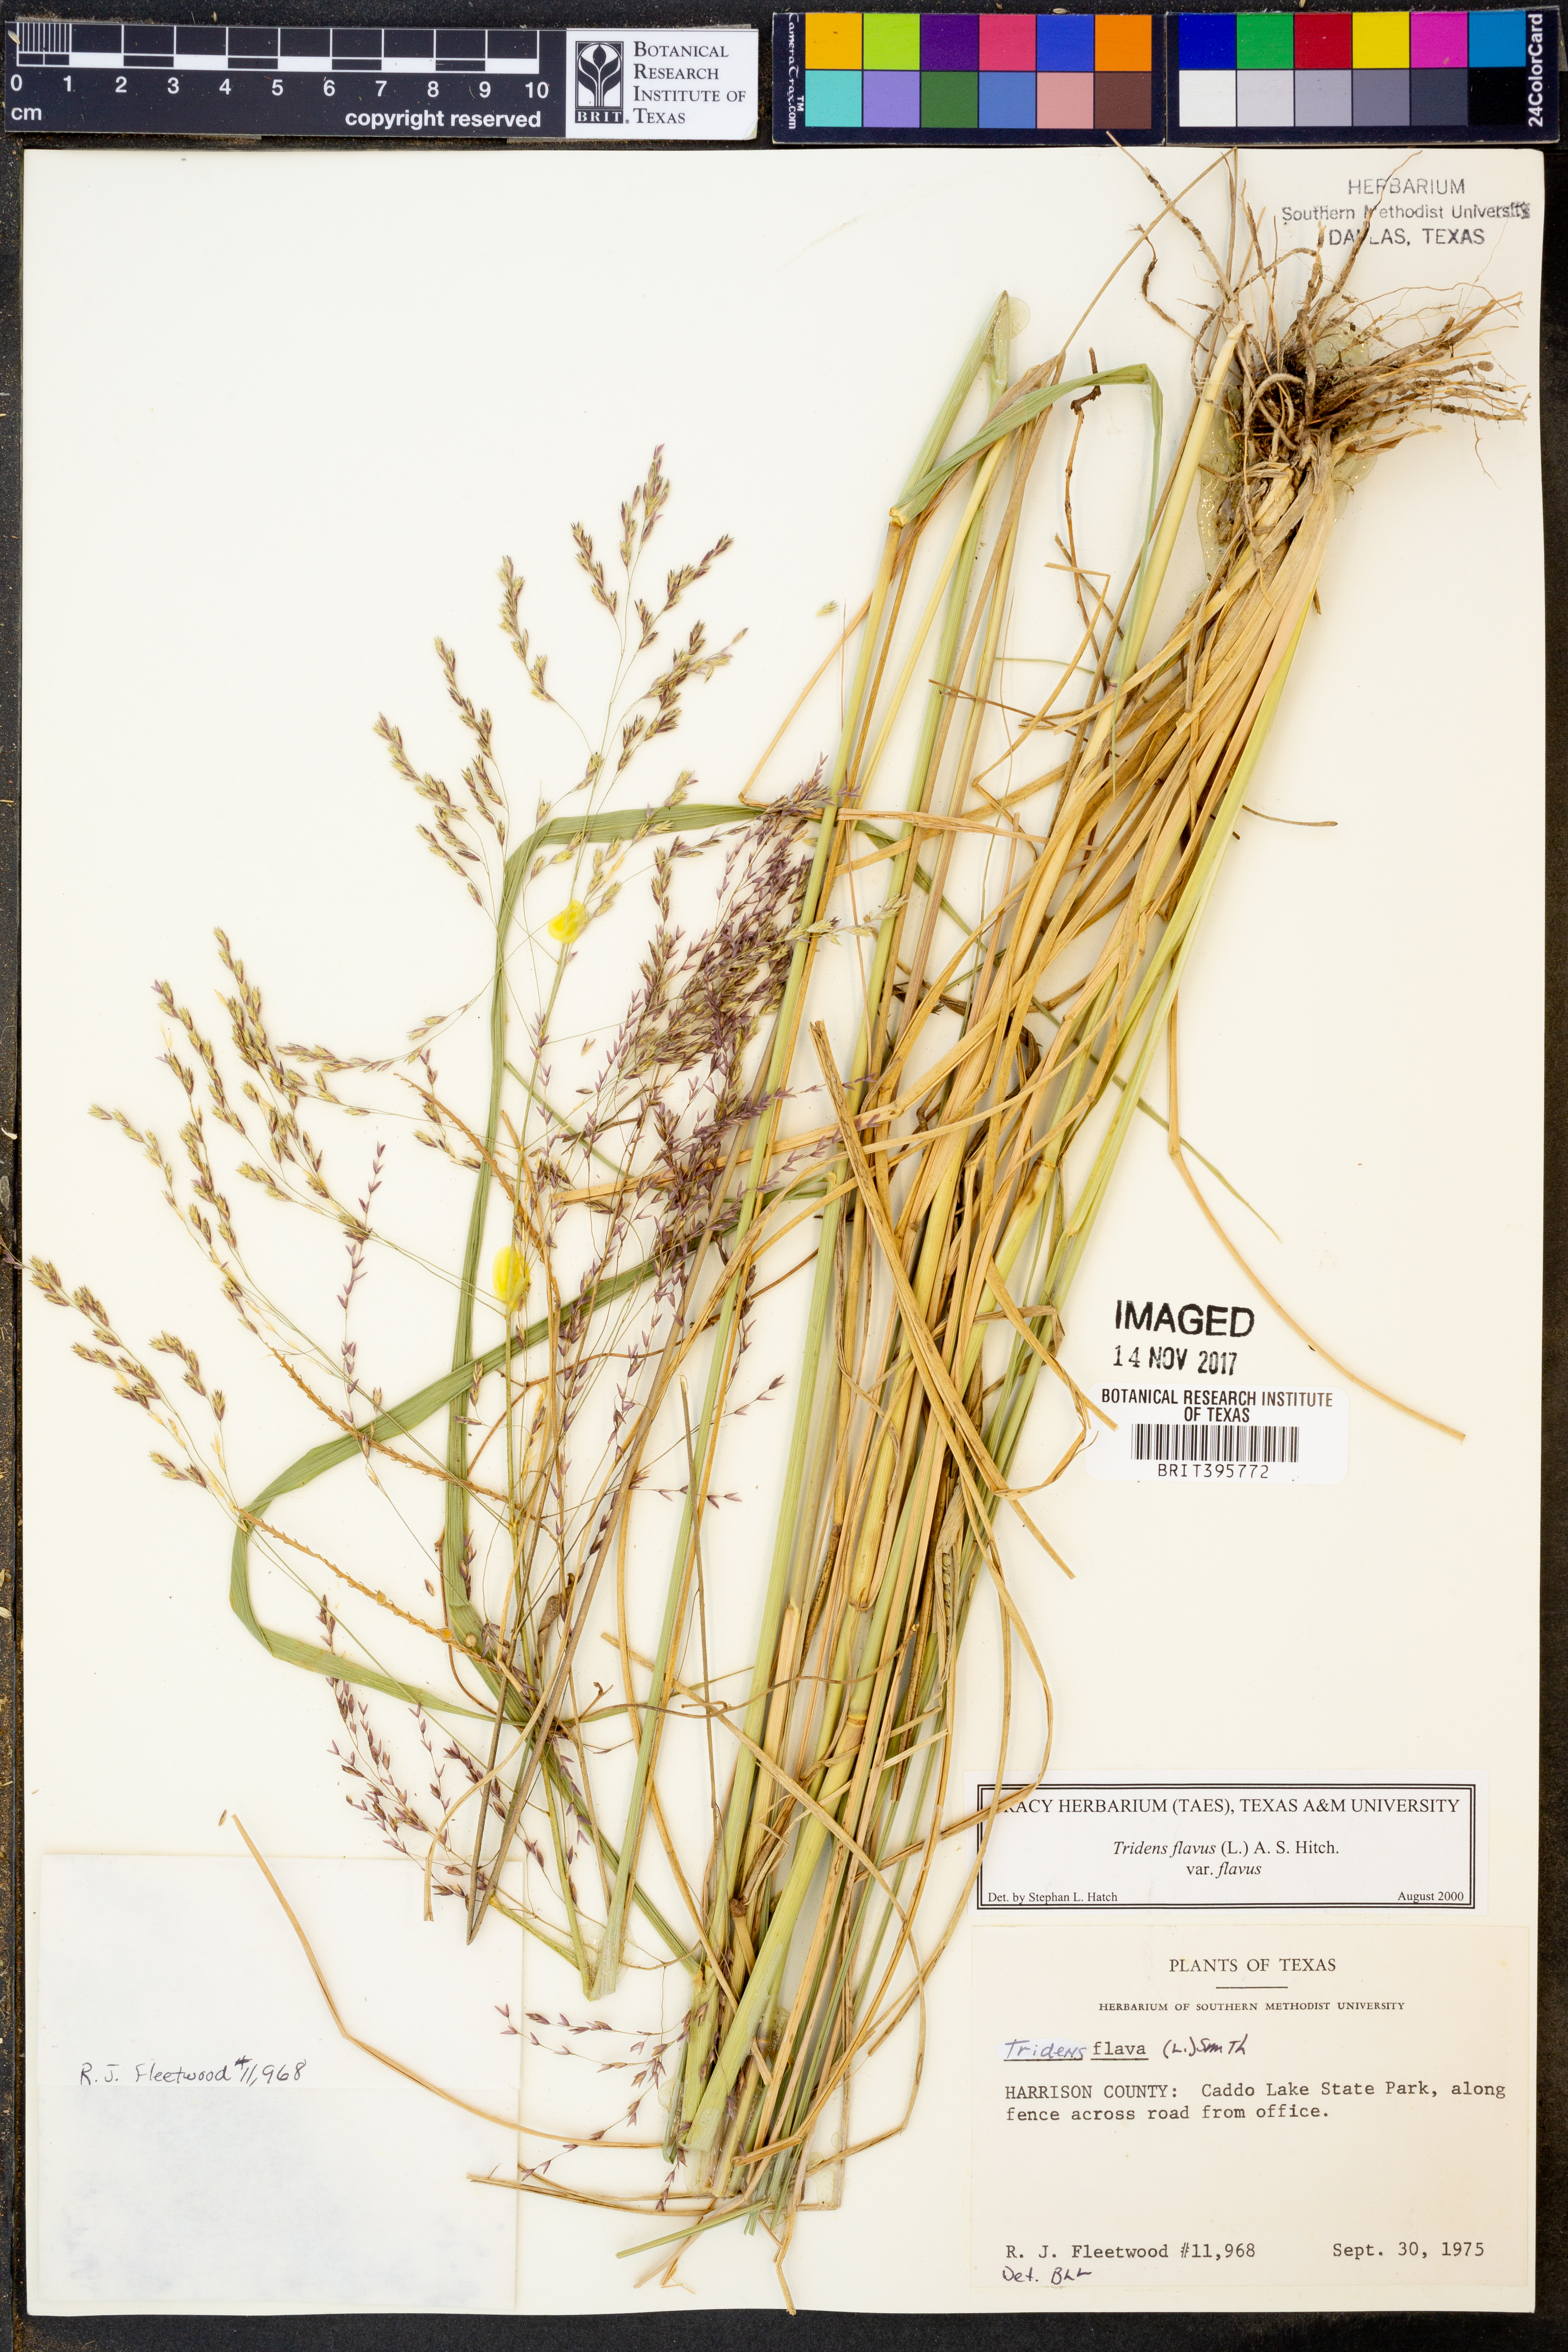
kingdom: Plantae
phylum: Tracheophyta
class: Liliopsida
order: Poales
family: Poaceae
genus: Tridens
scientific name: Tridens flavus
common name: Purpletop
